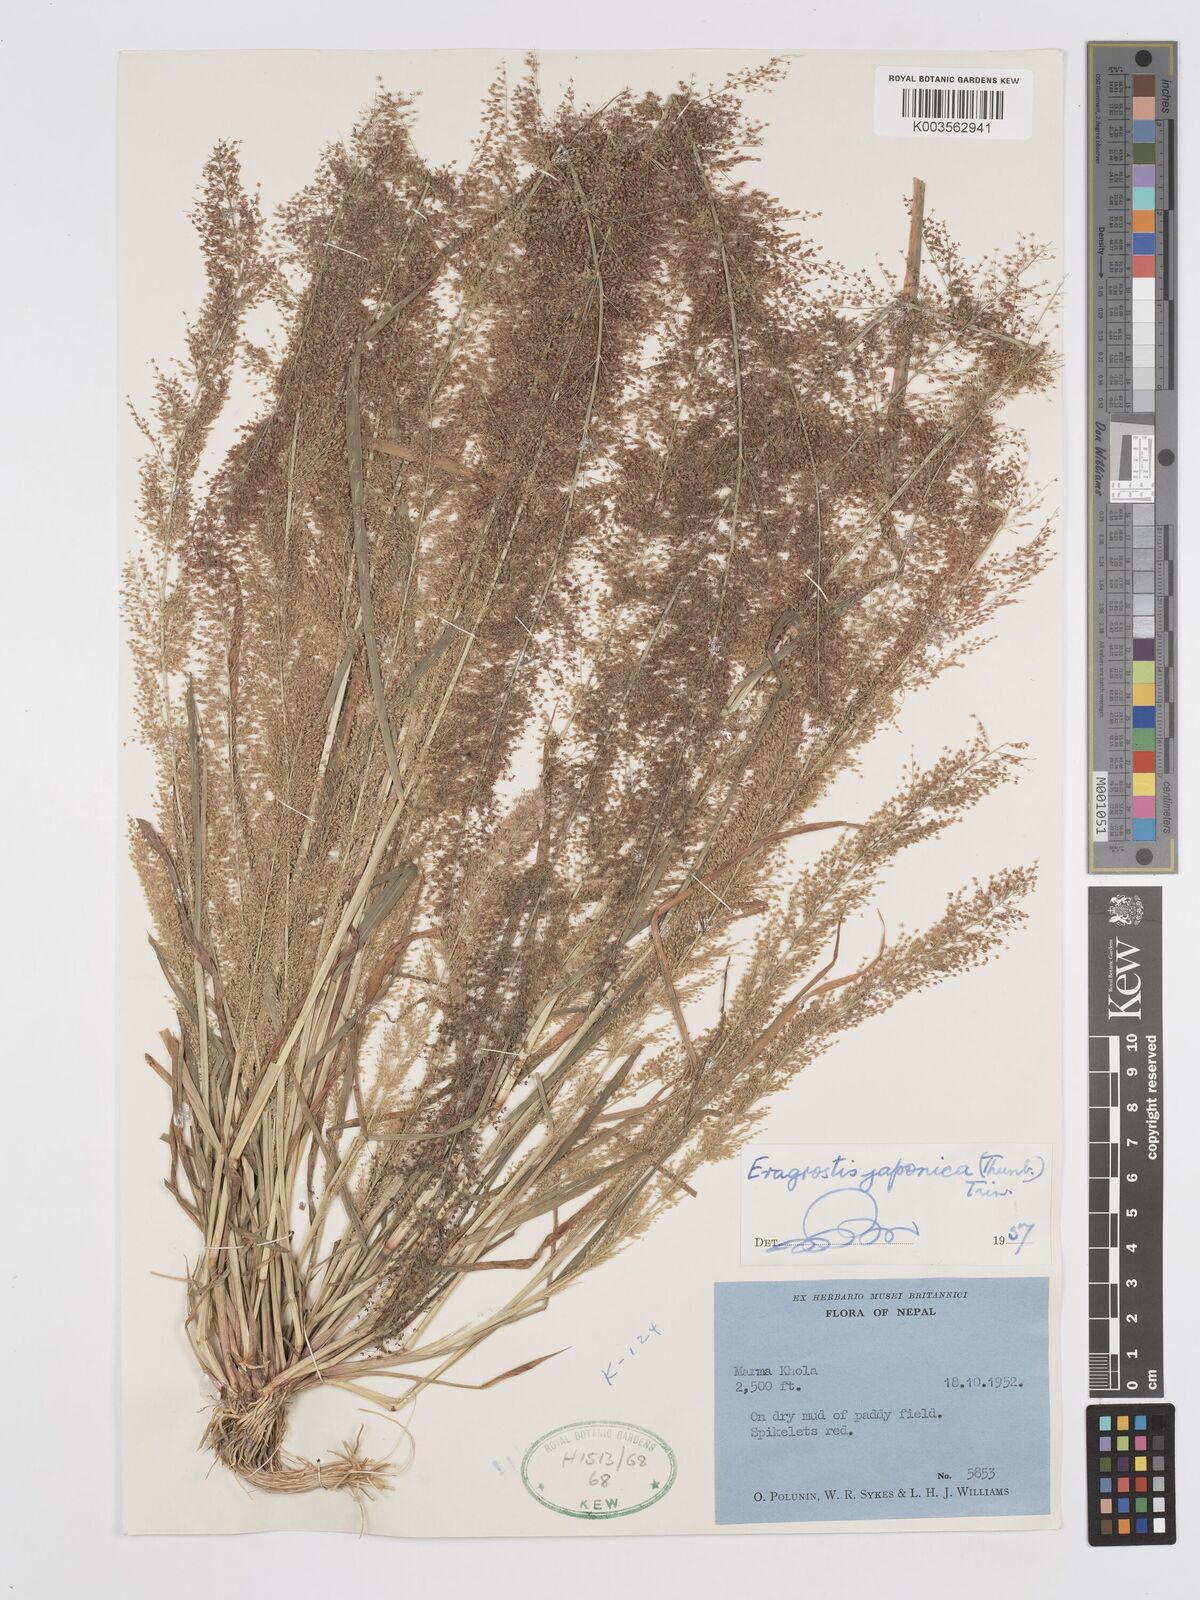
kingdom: Plantae
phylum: Tracheophyta
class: Liliopsida
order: Poales
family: Poaceae
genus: Eragrostis
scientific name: Eragrostis japonica
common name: Pond lovegrass
